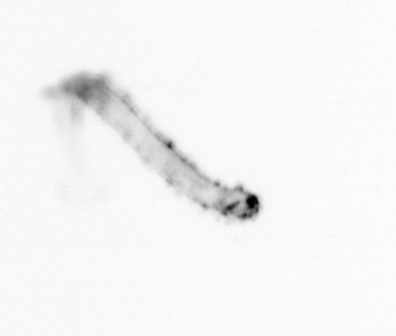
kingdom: Animalia
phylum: Chaetognatha
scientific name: Chaetognatha
